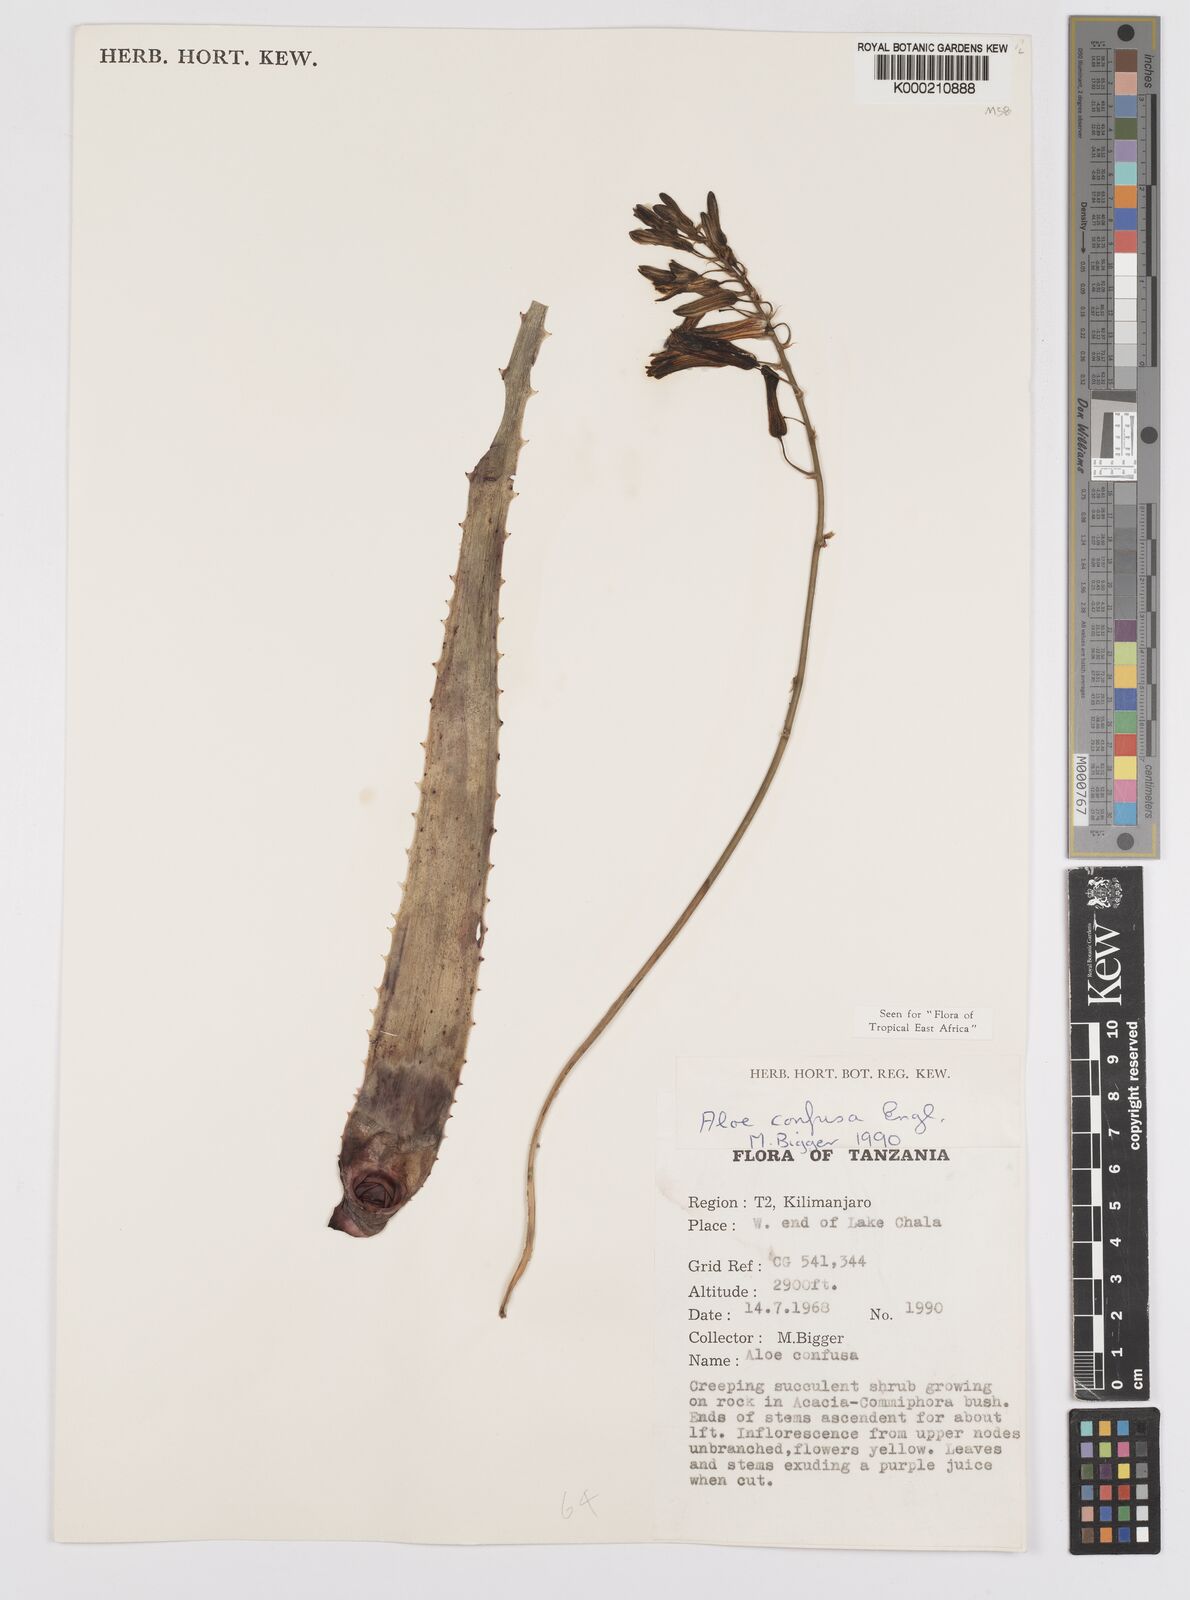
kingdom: Plantae
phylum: Tracheophyta
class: Liliopsida
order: Asparagales
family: Asphodelaceae
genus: Aloe
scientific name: Aloe confusa
